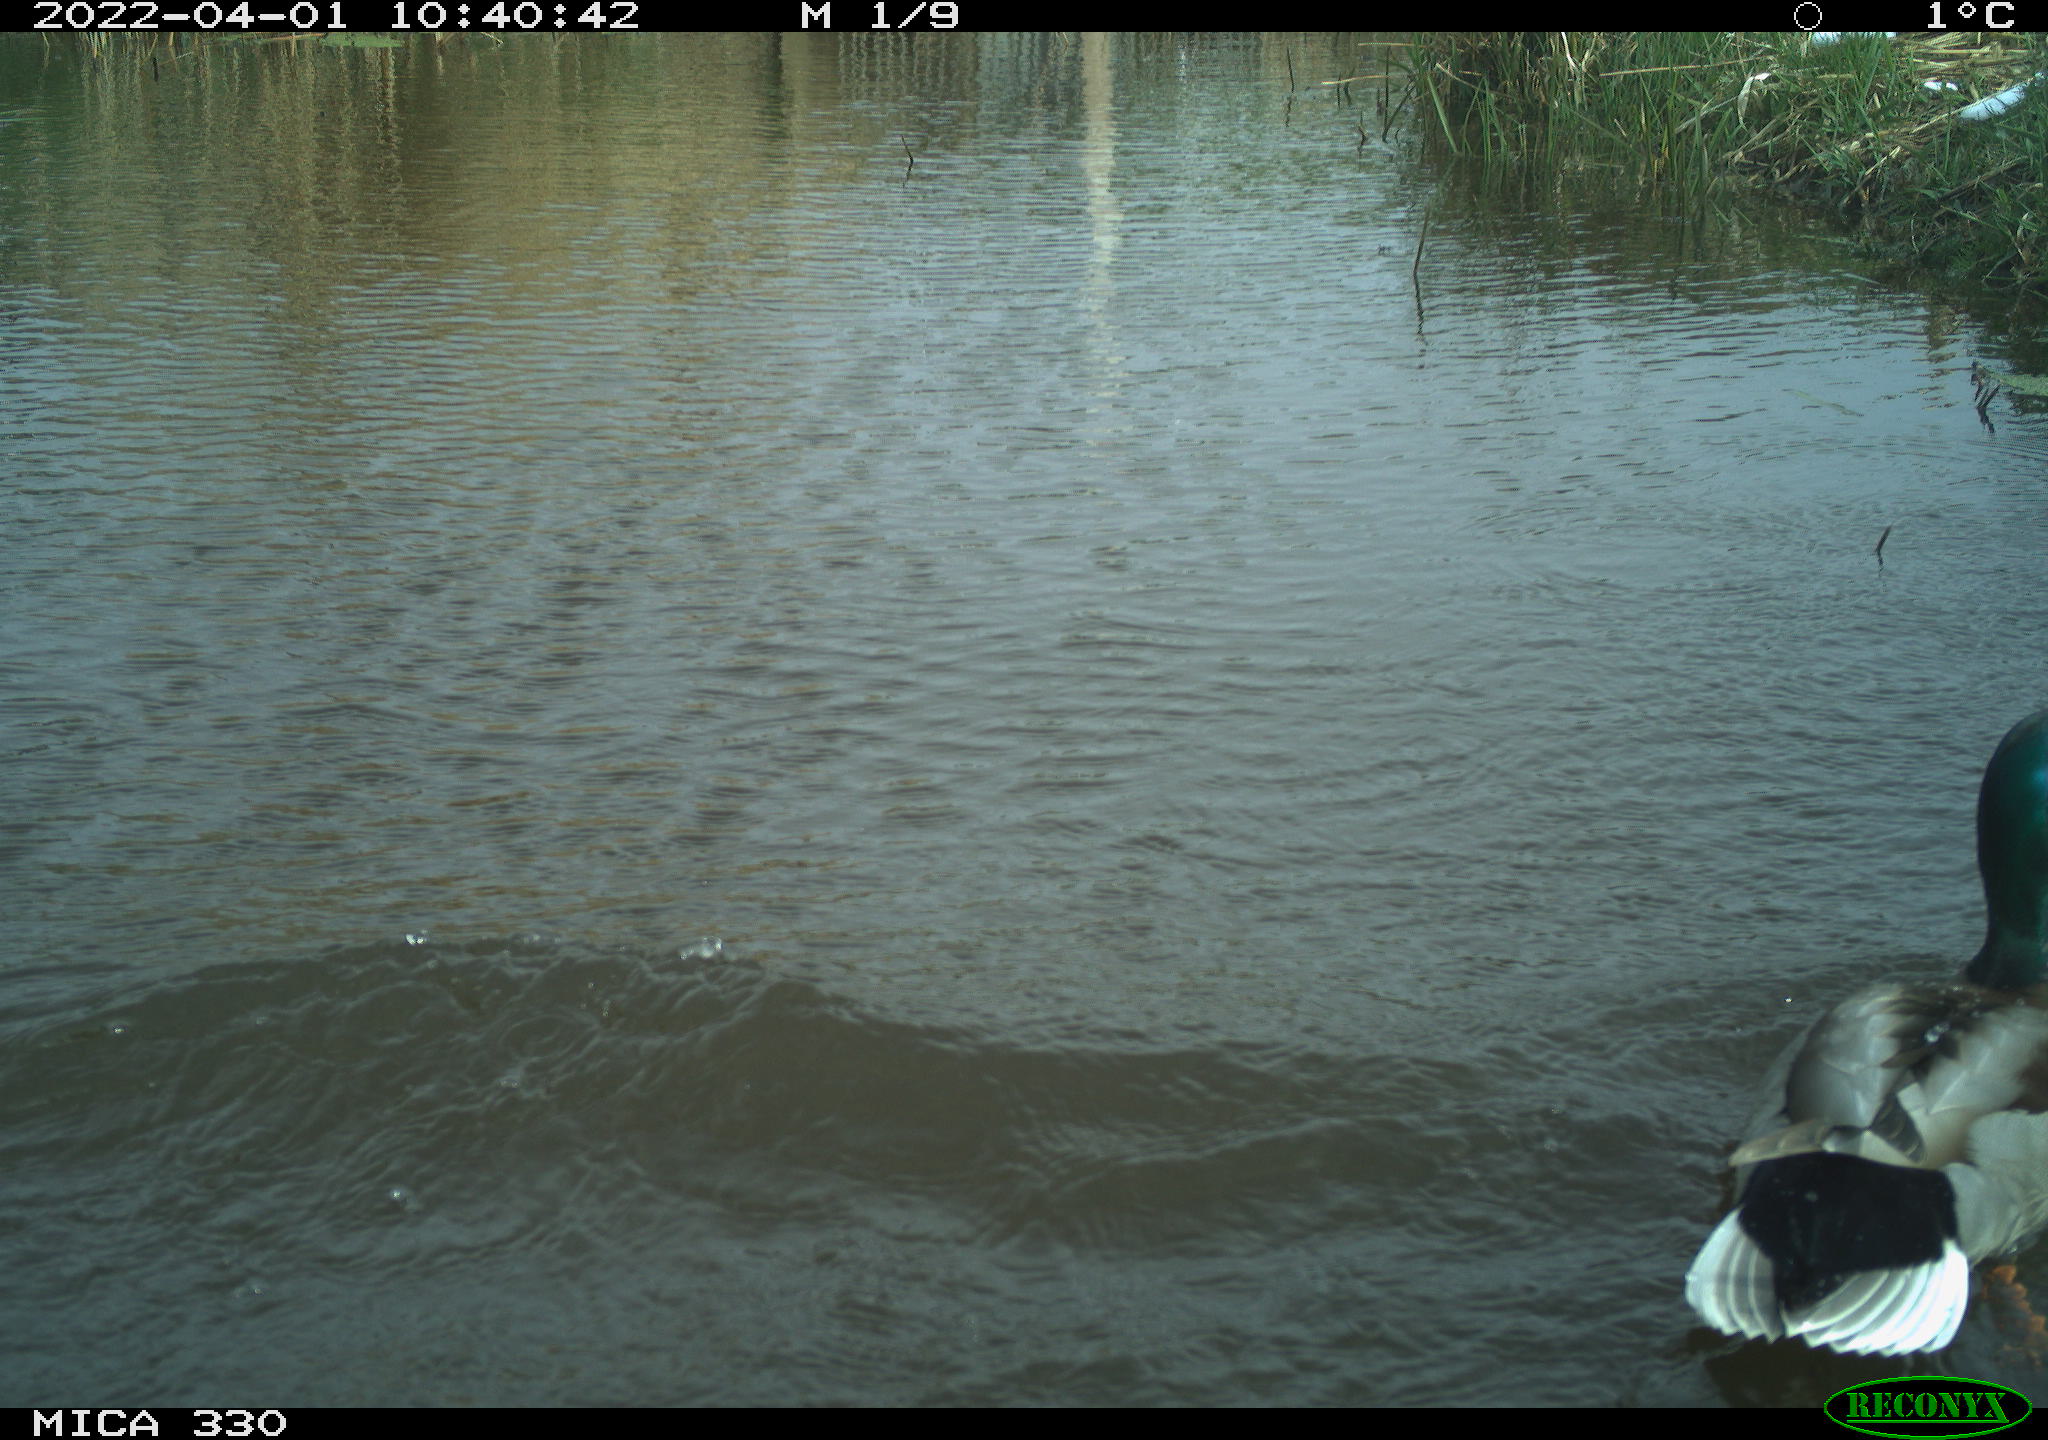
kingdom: Animalia
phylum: Chordata
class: Aves
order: Anseriformes
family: Anatidae
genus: Anas
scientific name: Anas platyrhynchos
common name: Mallard
